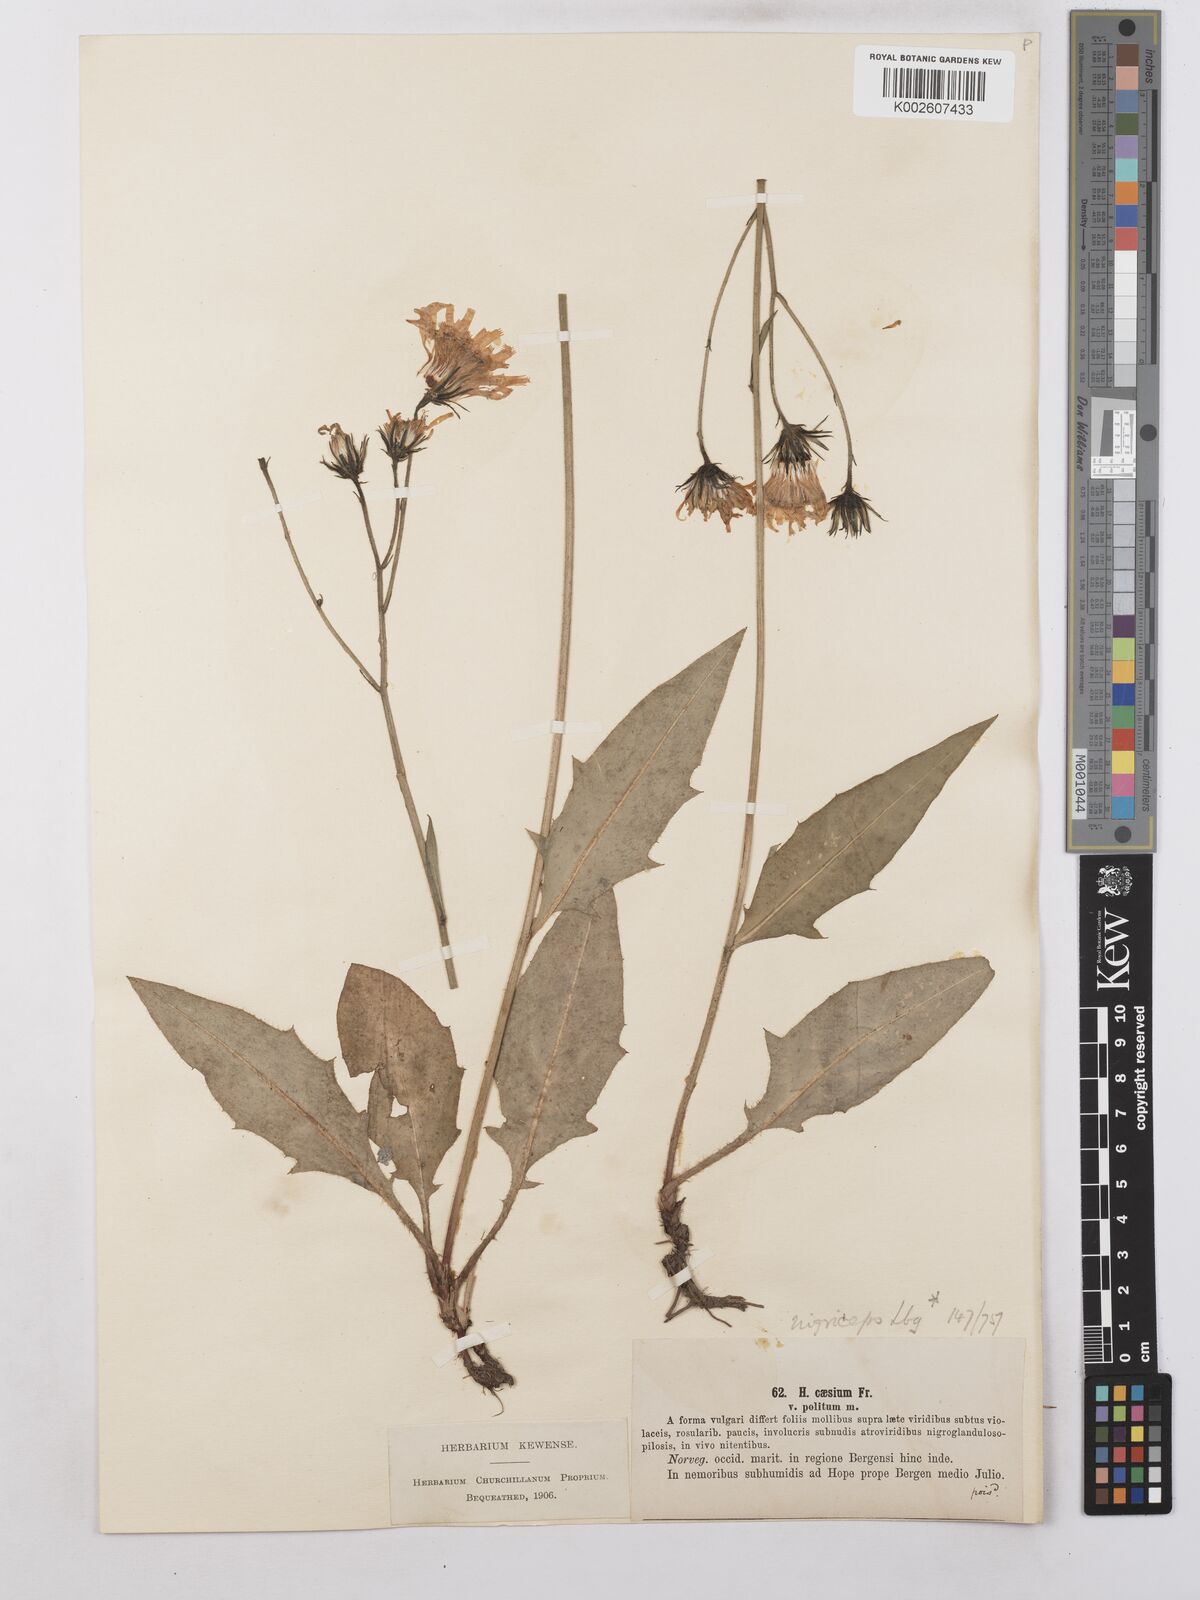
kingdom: Plantae
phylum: Tracheophyta
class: Magnoliopsida
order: Asterales
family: Asteraceae
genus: Hieracium
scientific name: Hieracium caesium
